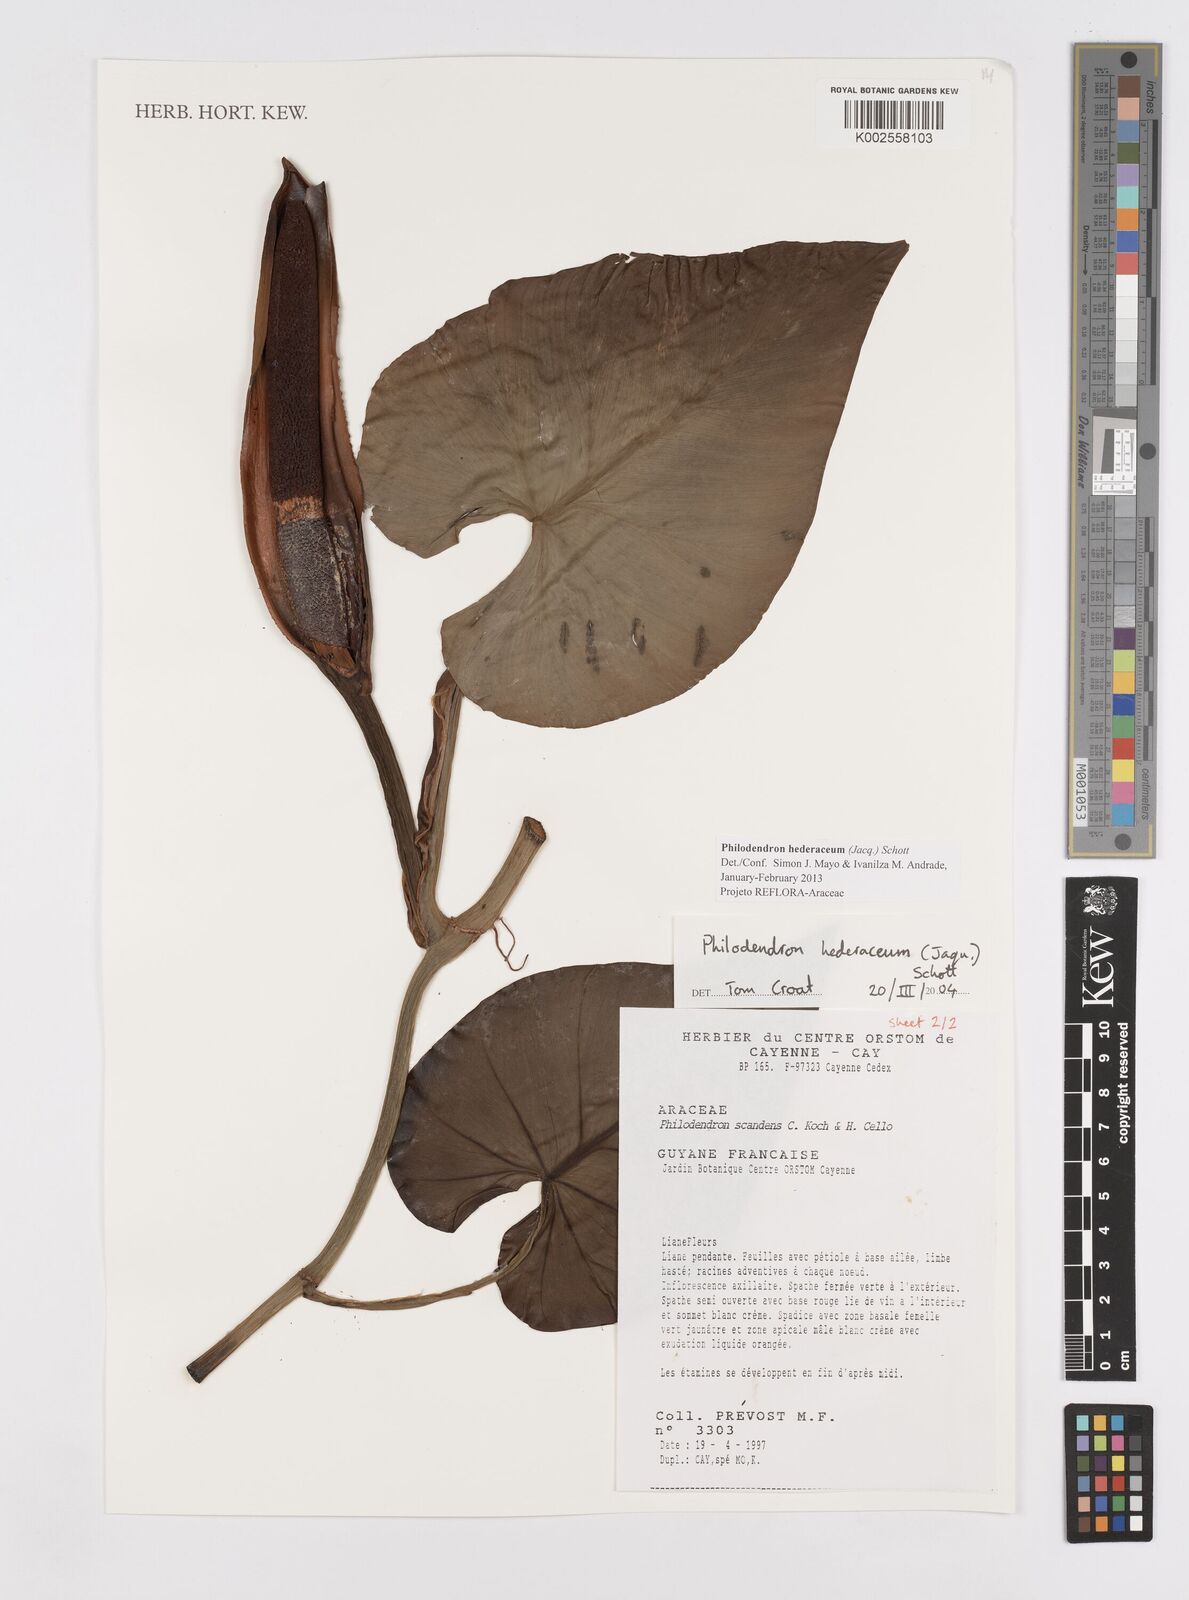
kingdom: Plantae
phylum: Tracheophyta
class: Liliopsida
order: Alismatales
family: Araceae
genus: Philodendron
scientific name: Philodendron hederaceum
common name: Vilevine
